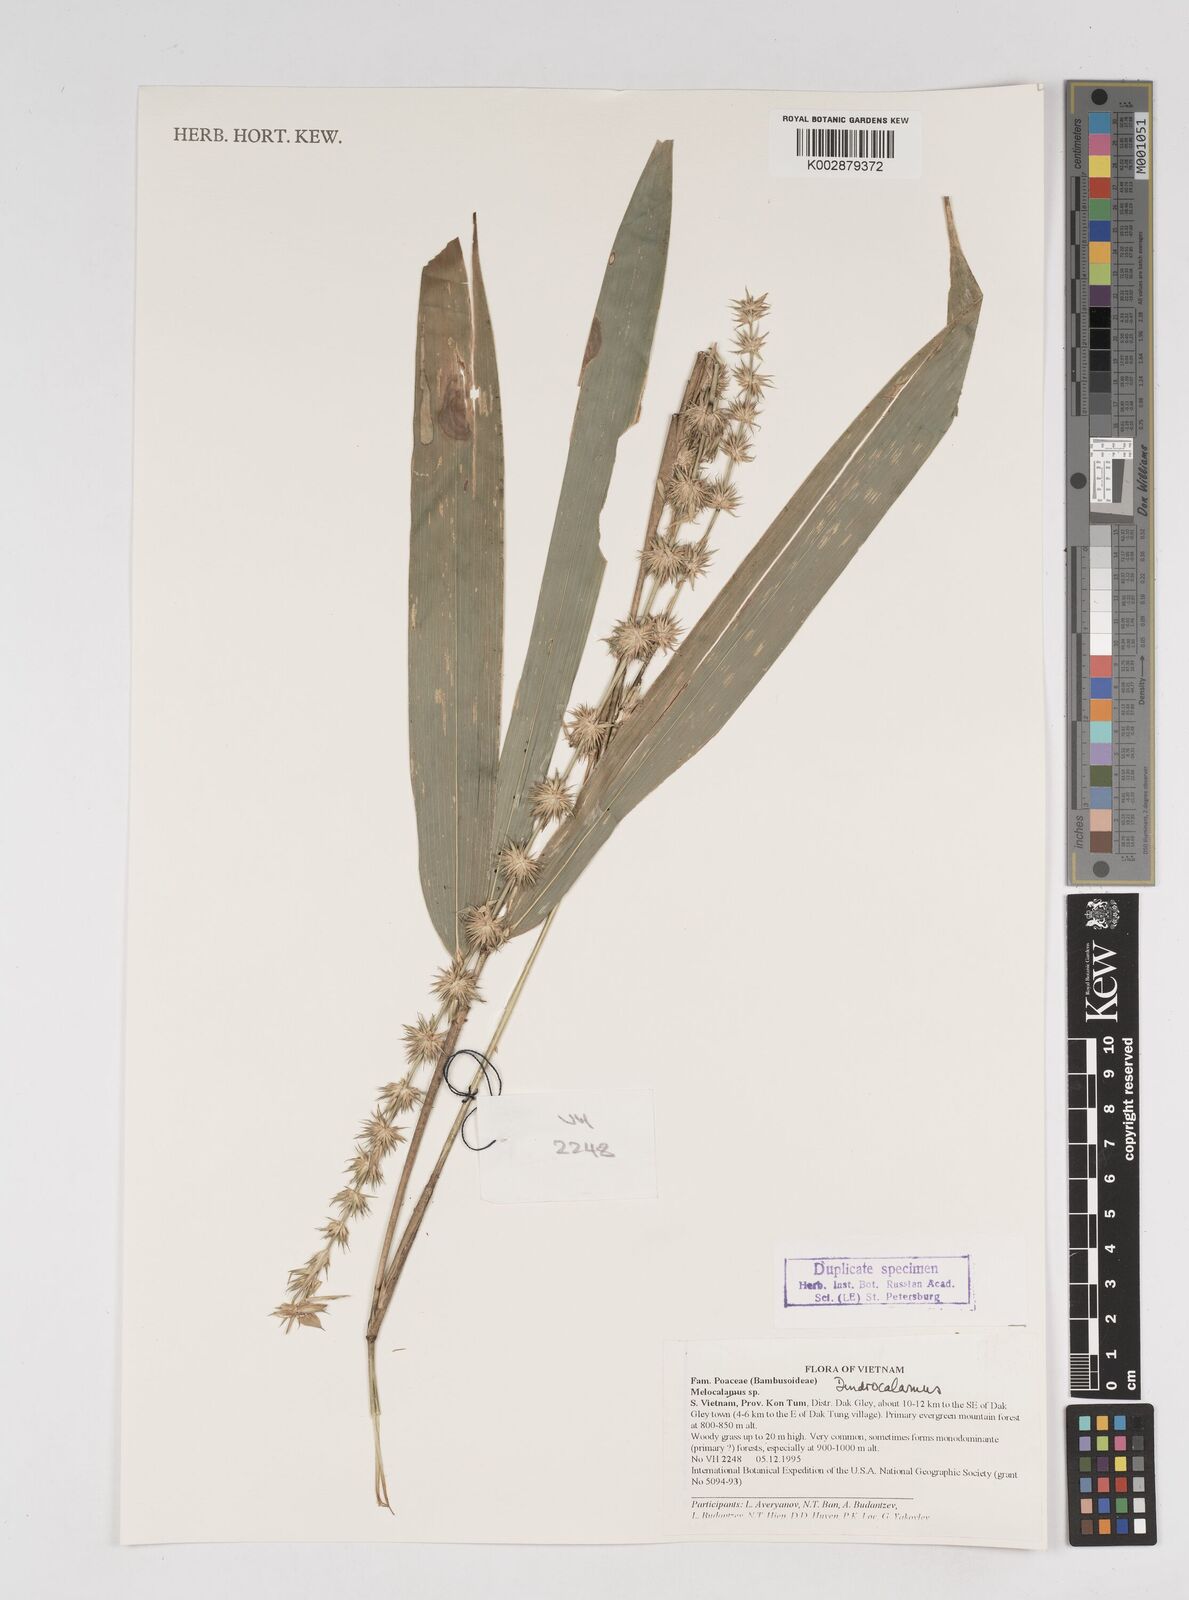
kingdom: Plantae
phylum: Tracheophyta
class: Liliopsida
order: Poales
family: Poaceae
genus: Dendrocalamus
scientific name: Dendrocalamus
